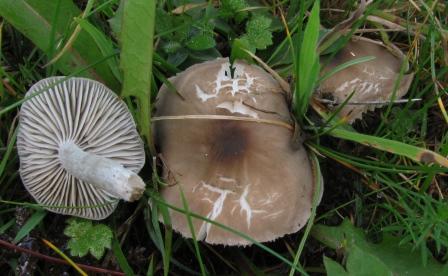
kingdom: Fungi
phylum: Basidiomycota
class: Agaricomycetes
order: Agaricales
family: Tricholomataceae
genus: Dermoloma
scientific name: Dermoloma cuneifolium
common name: eng-nonnehat
